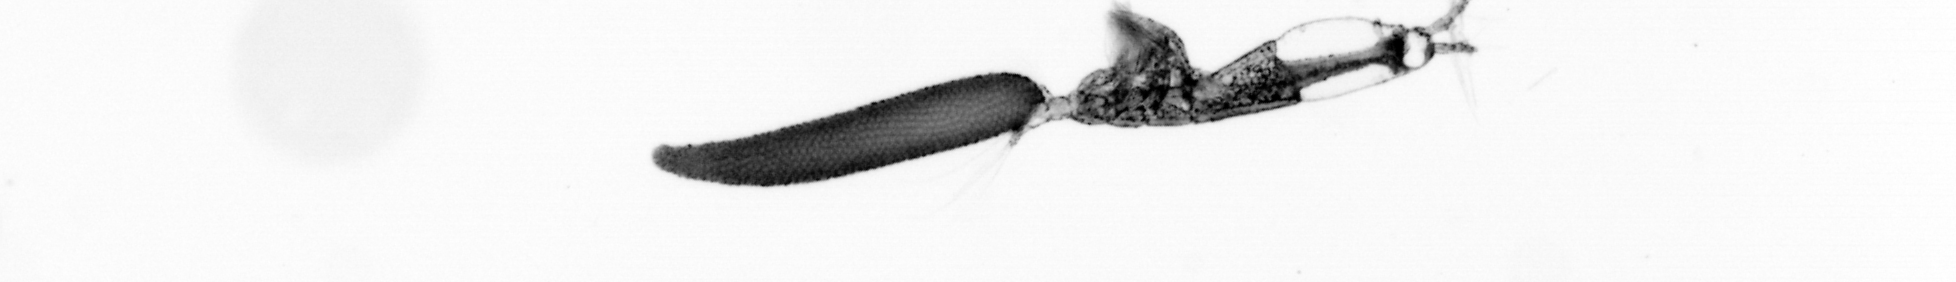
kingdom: Animalia
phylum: Arthropoda
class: Copepoda
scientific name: Copepoda
